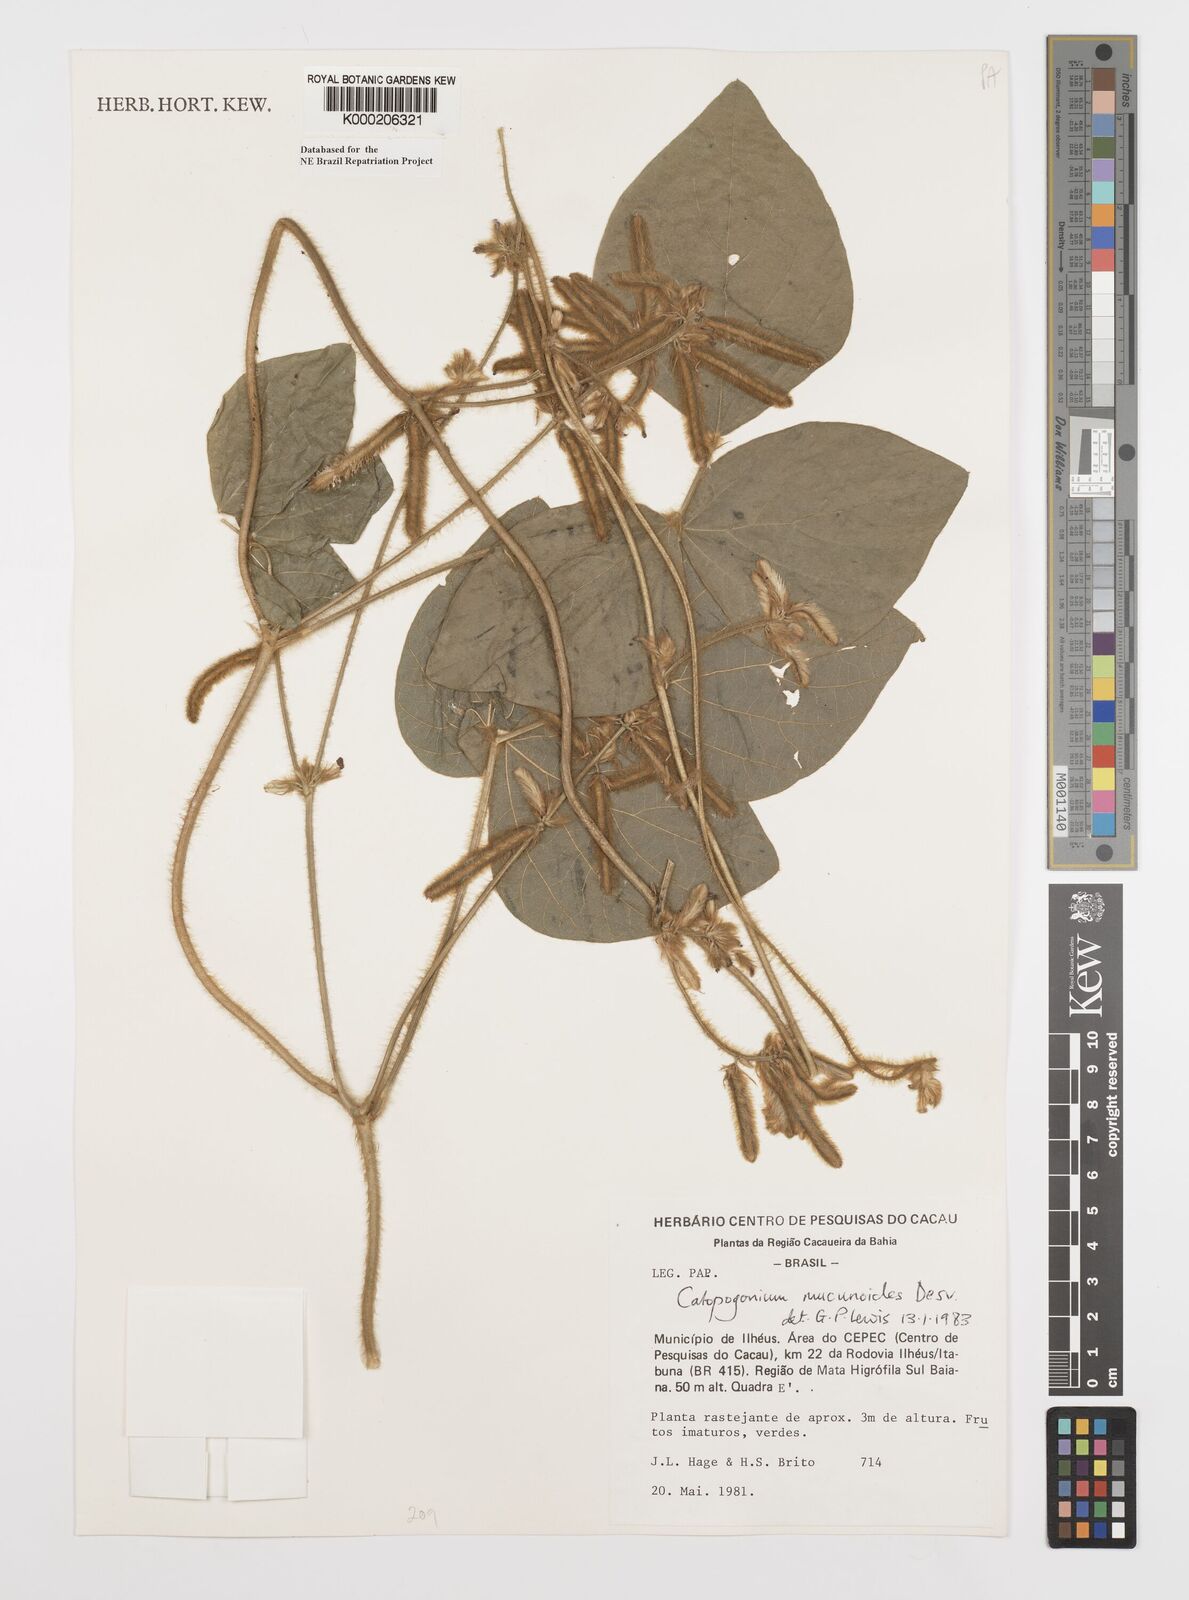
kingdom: Plantae
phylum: Tracheophyta
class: Magnoliopsida
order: Fabales
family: Fabaceae
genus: Calopogonium
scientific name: Calopogonium mucunoides
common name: Calopo
